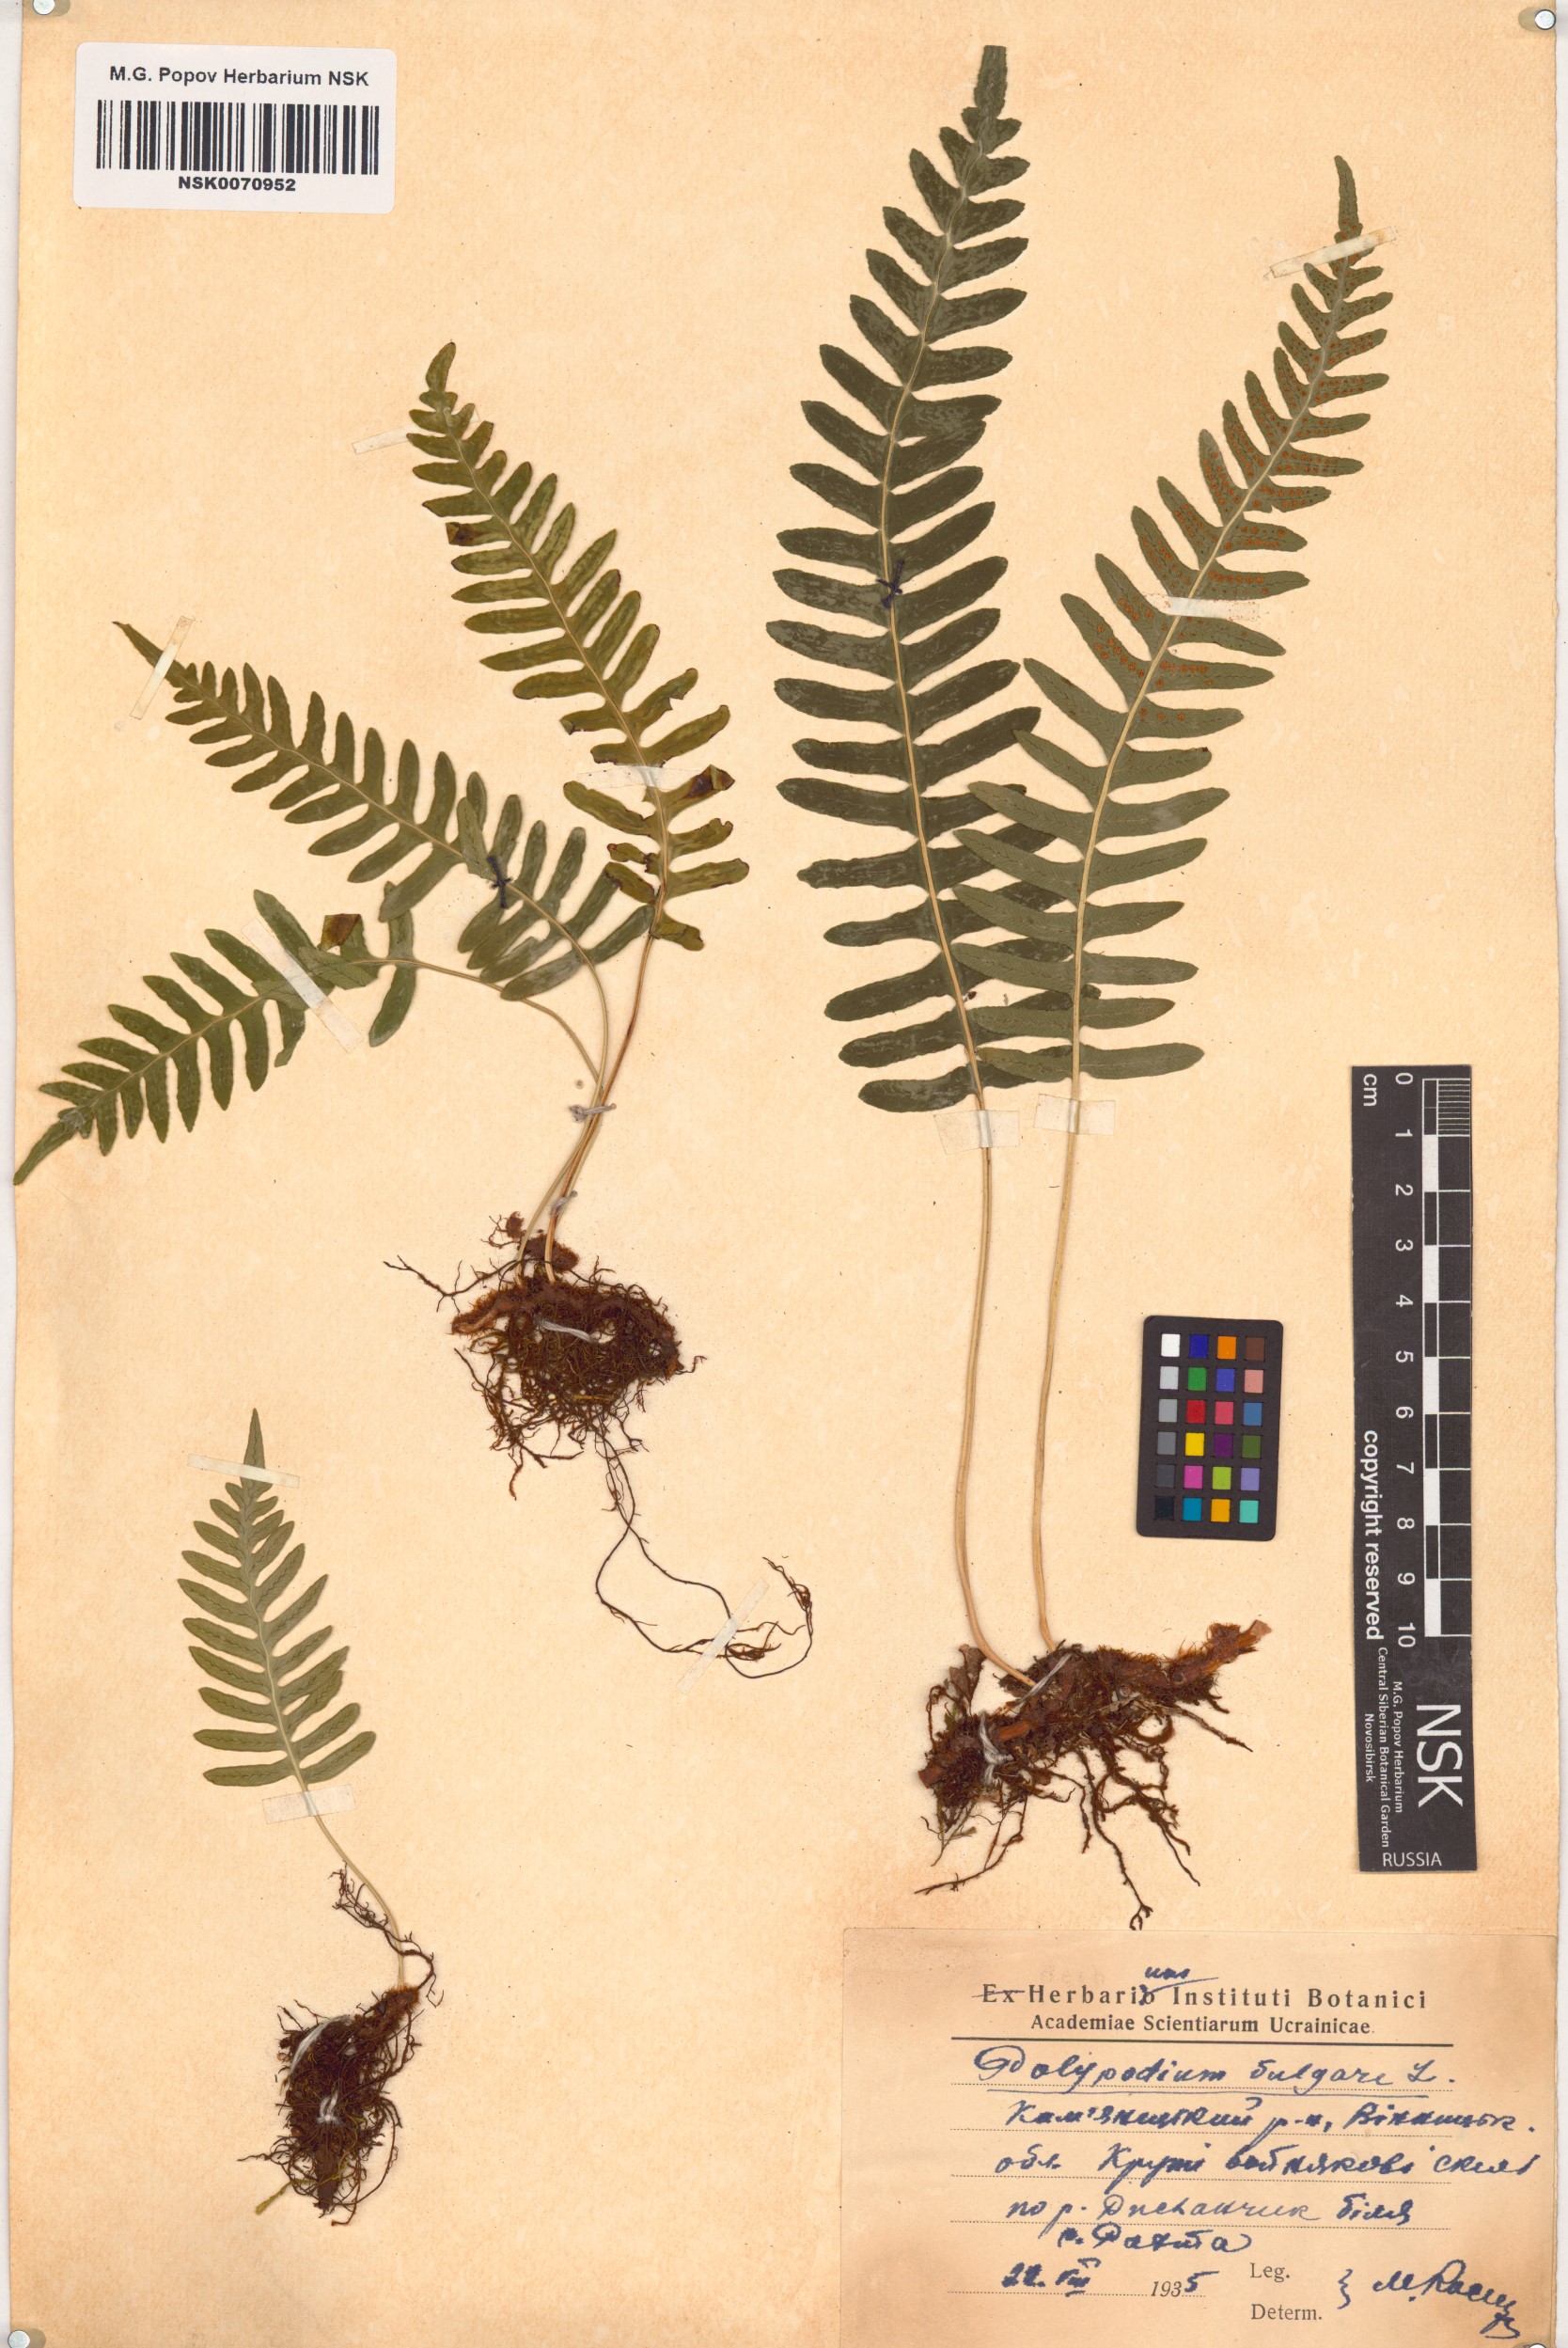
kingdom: Plantae
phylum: Tracheophyta
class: Polypodiopsida
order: Polypodiales
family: Polypodiaceae
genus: Polypodium
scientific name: Polypodium vulgare
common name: Common polypody
